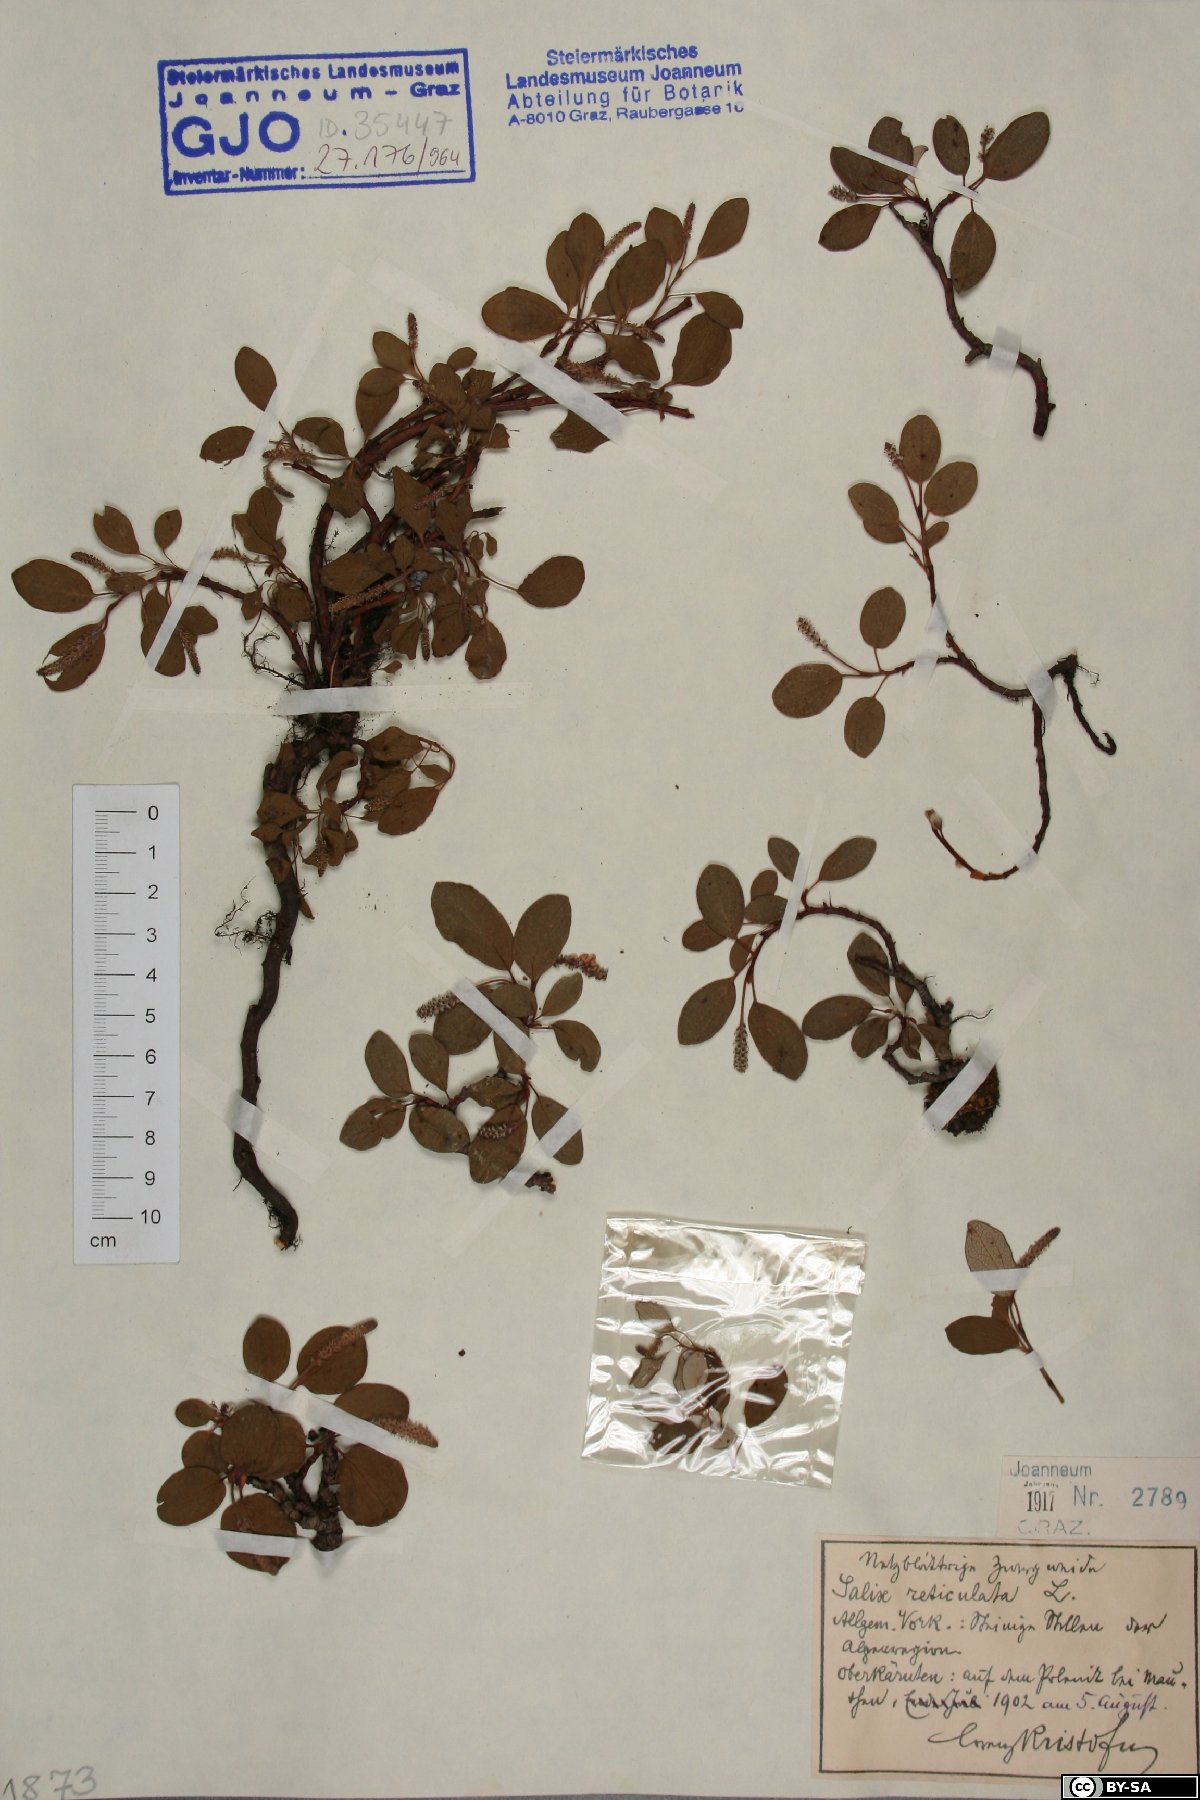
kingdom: Plantae
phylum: Tracheophyta
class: Magnoliopsida
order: Malpighiales
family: Salicaceae
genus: Salix
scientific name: Salix reticulata
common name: Net-leaved willow
